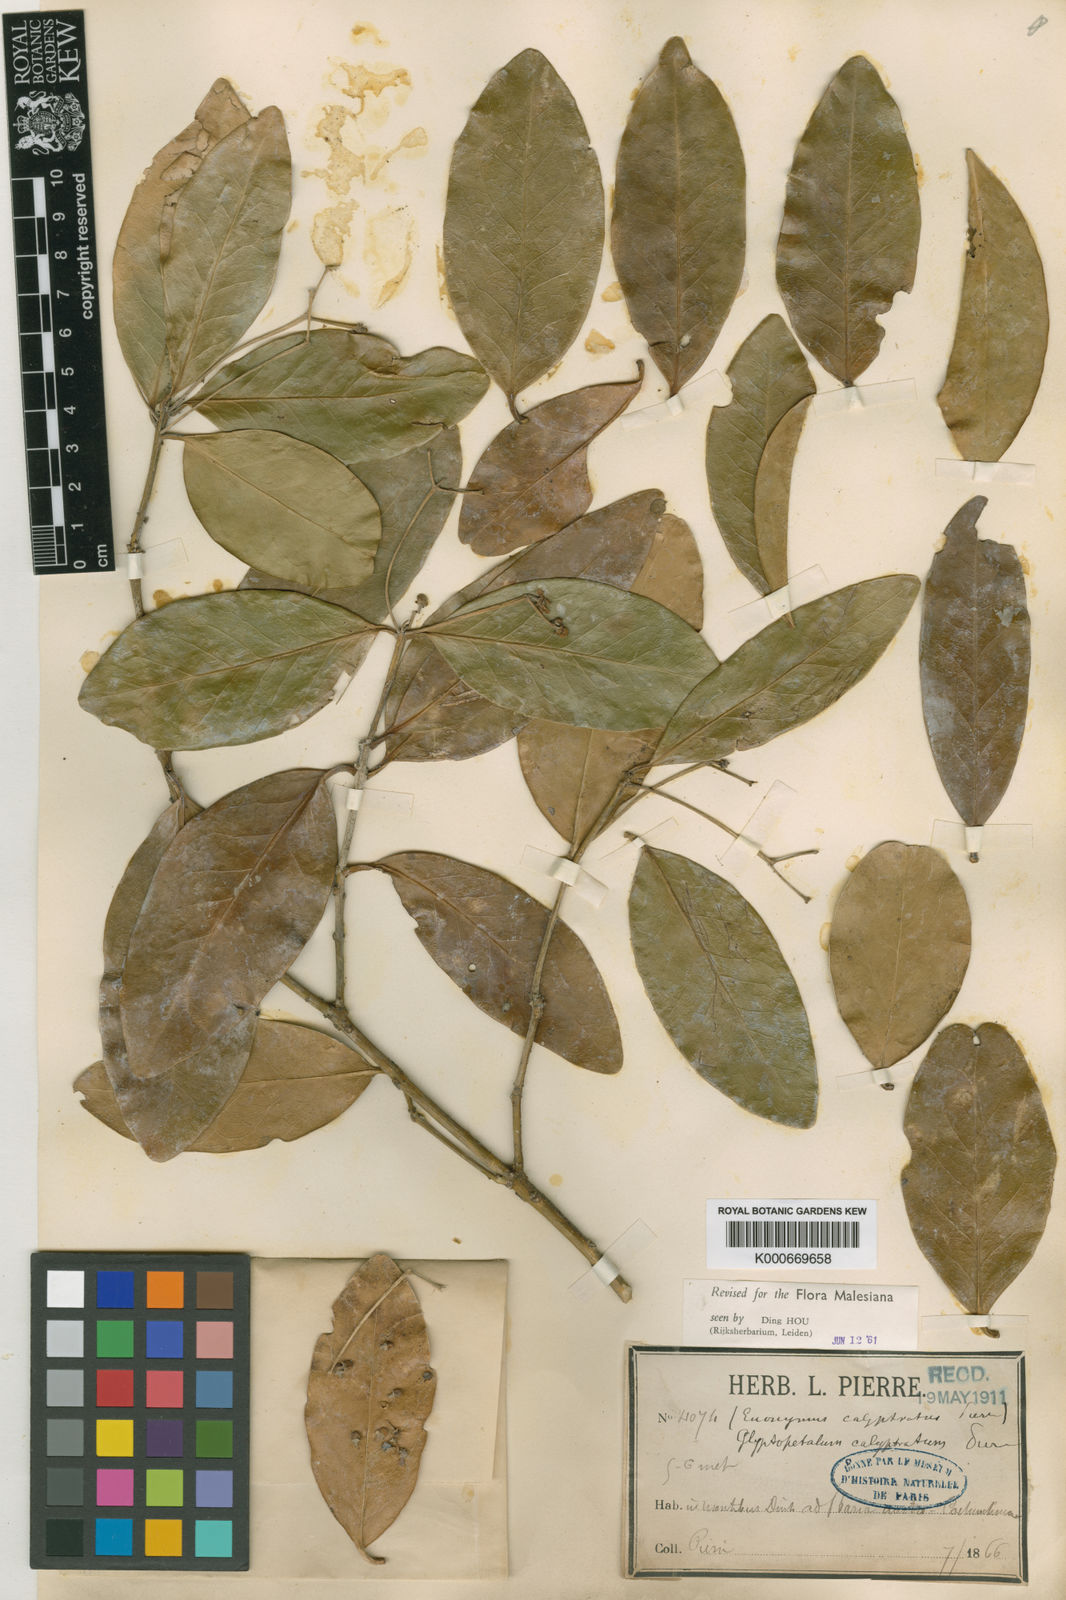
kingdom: Plantae
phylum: Tracheophyta
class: Magnoliopsida
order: Celastrales
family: Celastraceae
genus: Euonymus
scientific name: Euonymus calyptratus
